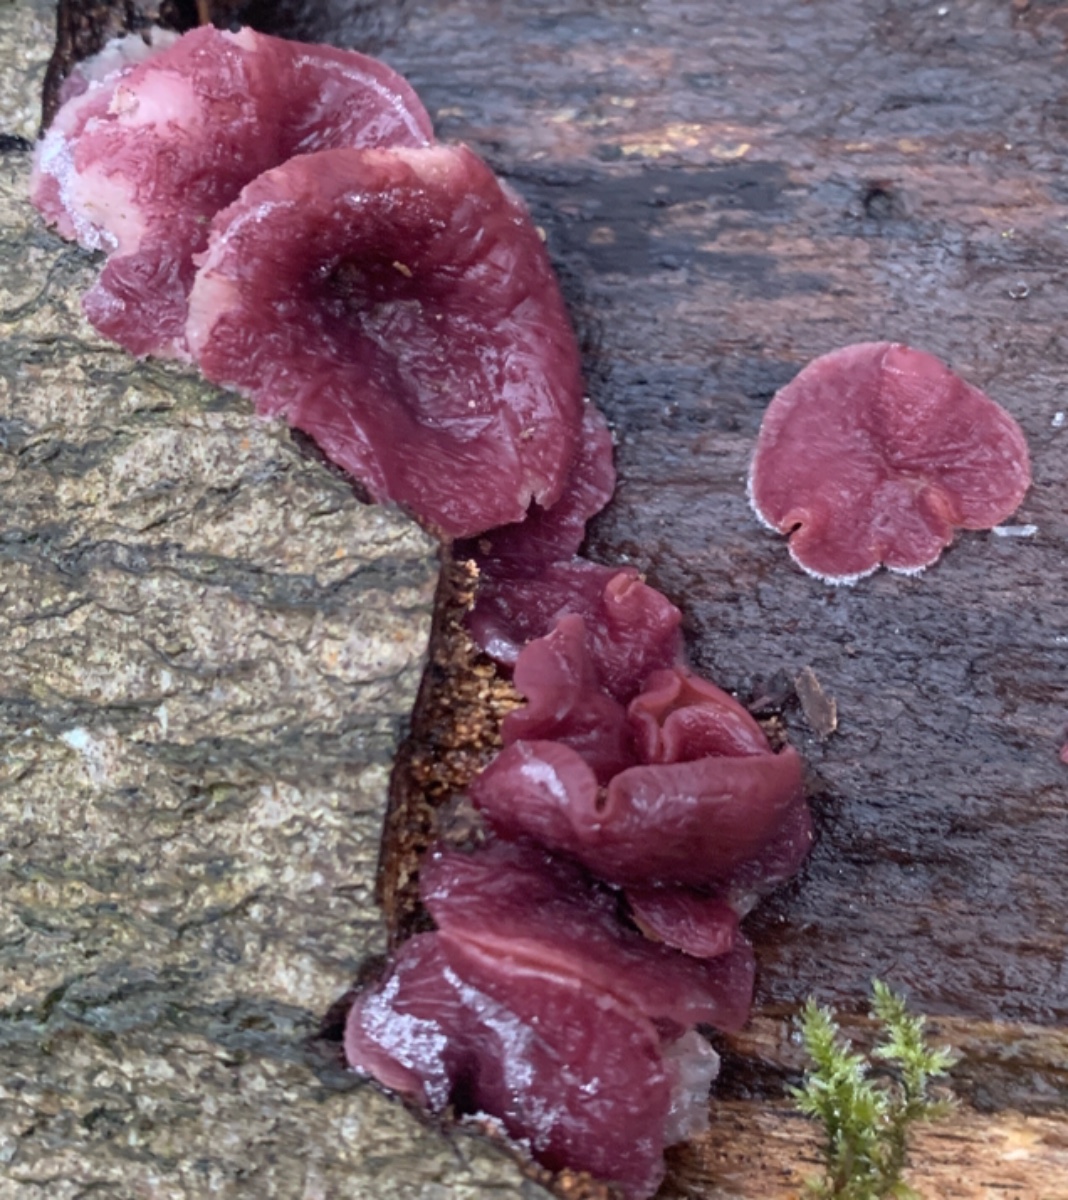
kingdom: Fungi
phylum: Ascomycota
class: Leotiomycetes
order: Helotiales
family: Gelatinodiscaceae
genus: Ascocoryne
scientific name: Ascocoryne cylichnium
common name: stor sejskive
